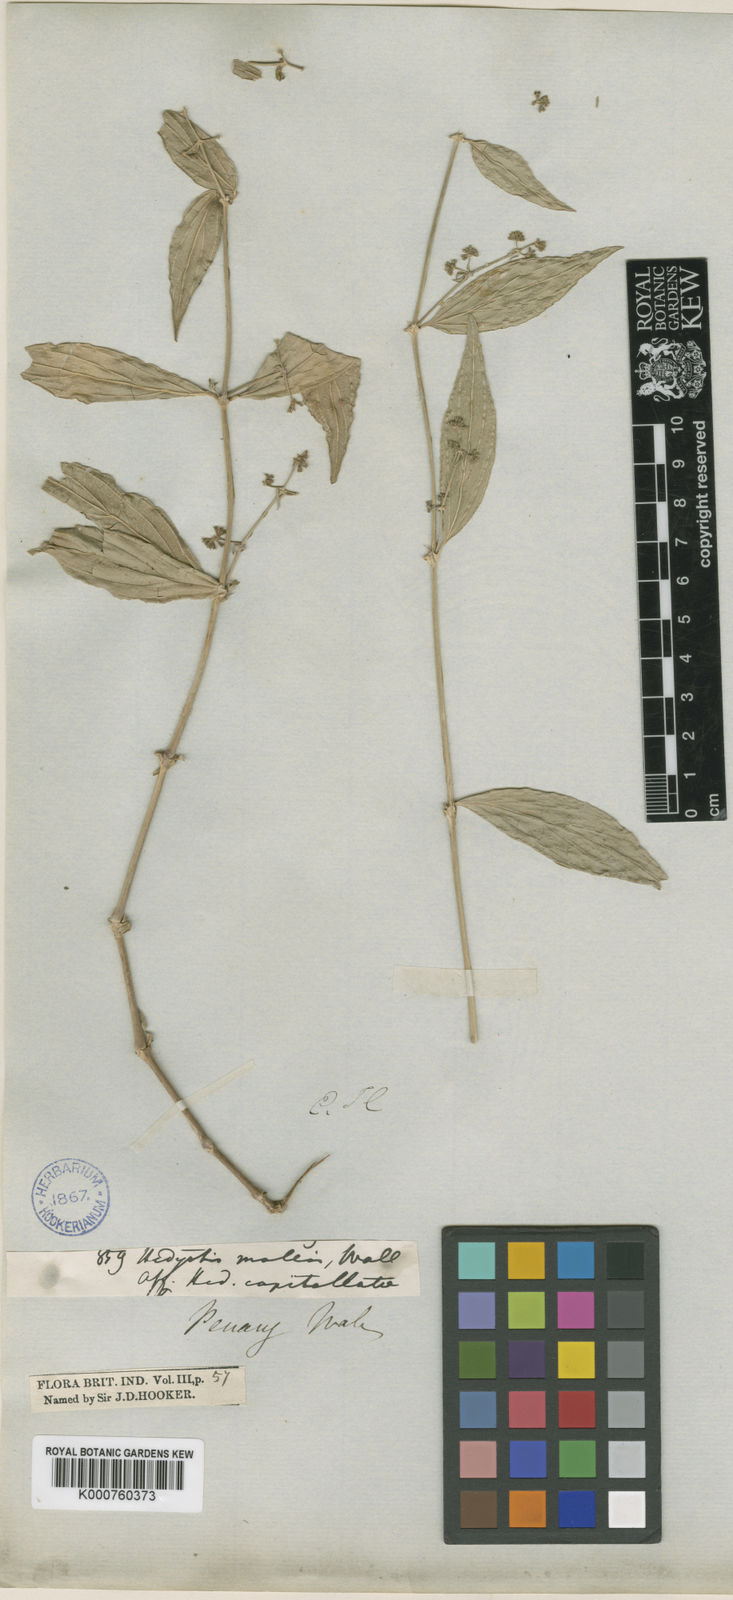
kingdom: Plantae
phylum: Tracheophyta
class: Magnoliopsida
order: Gentianales
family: Rubiaceae
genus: Oldenlandia
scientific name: Oldenlandia mollis
